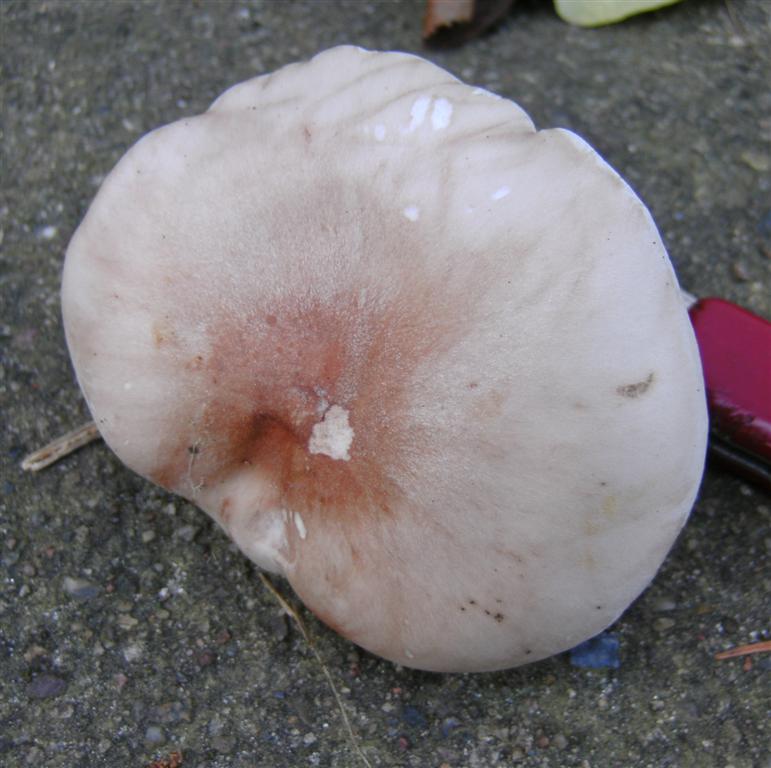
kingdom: Fungi
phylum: Basidiomycota
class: Agaricomycetes
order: Agaricales
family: Tricholomataceae
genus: Lepista
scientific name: Lepista nuda
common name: violet hekseringshat
